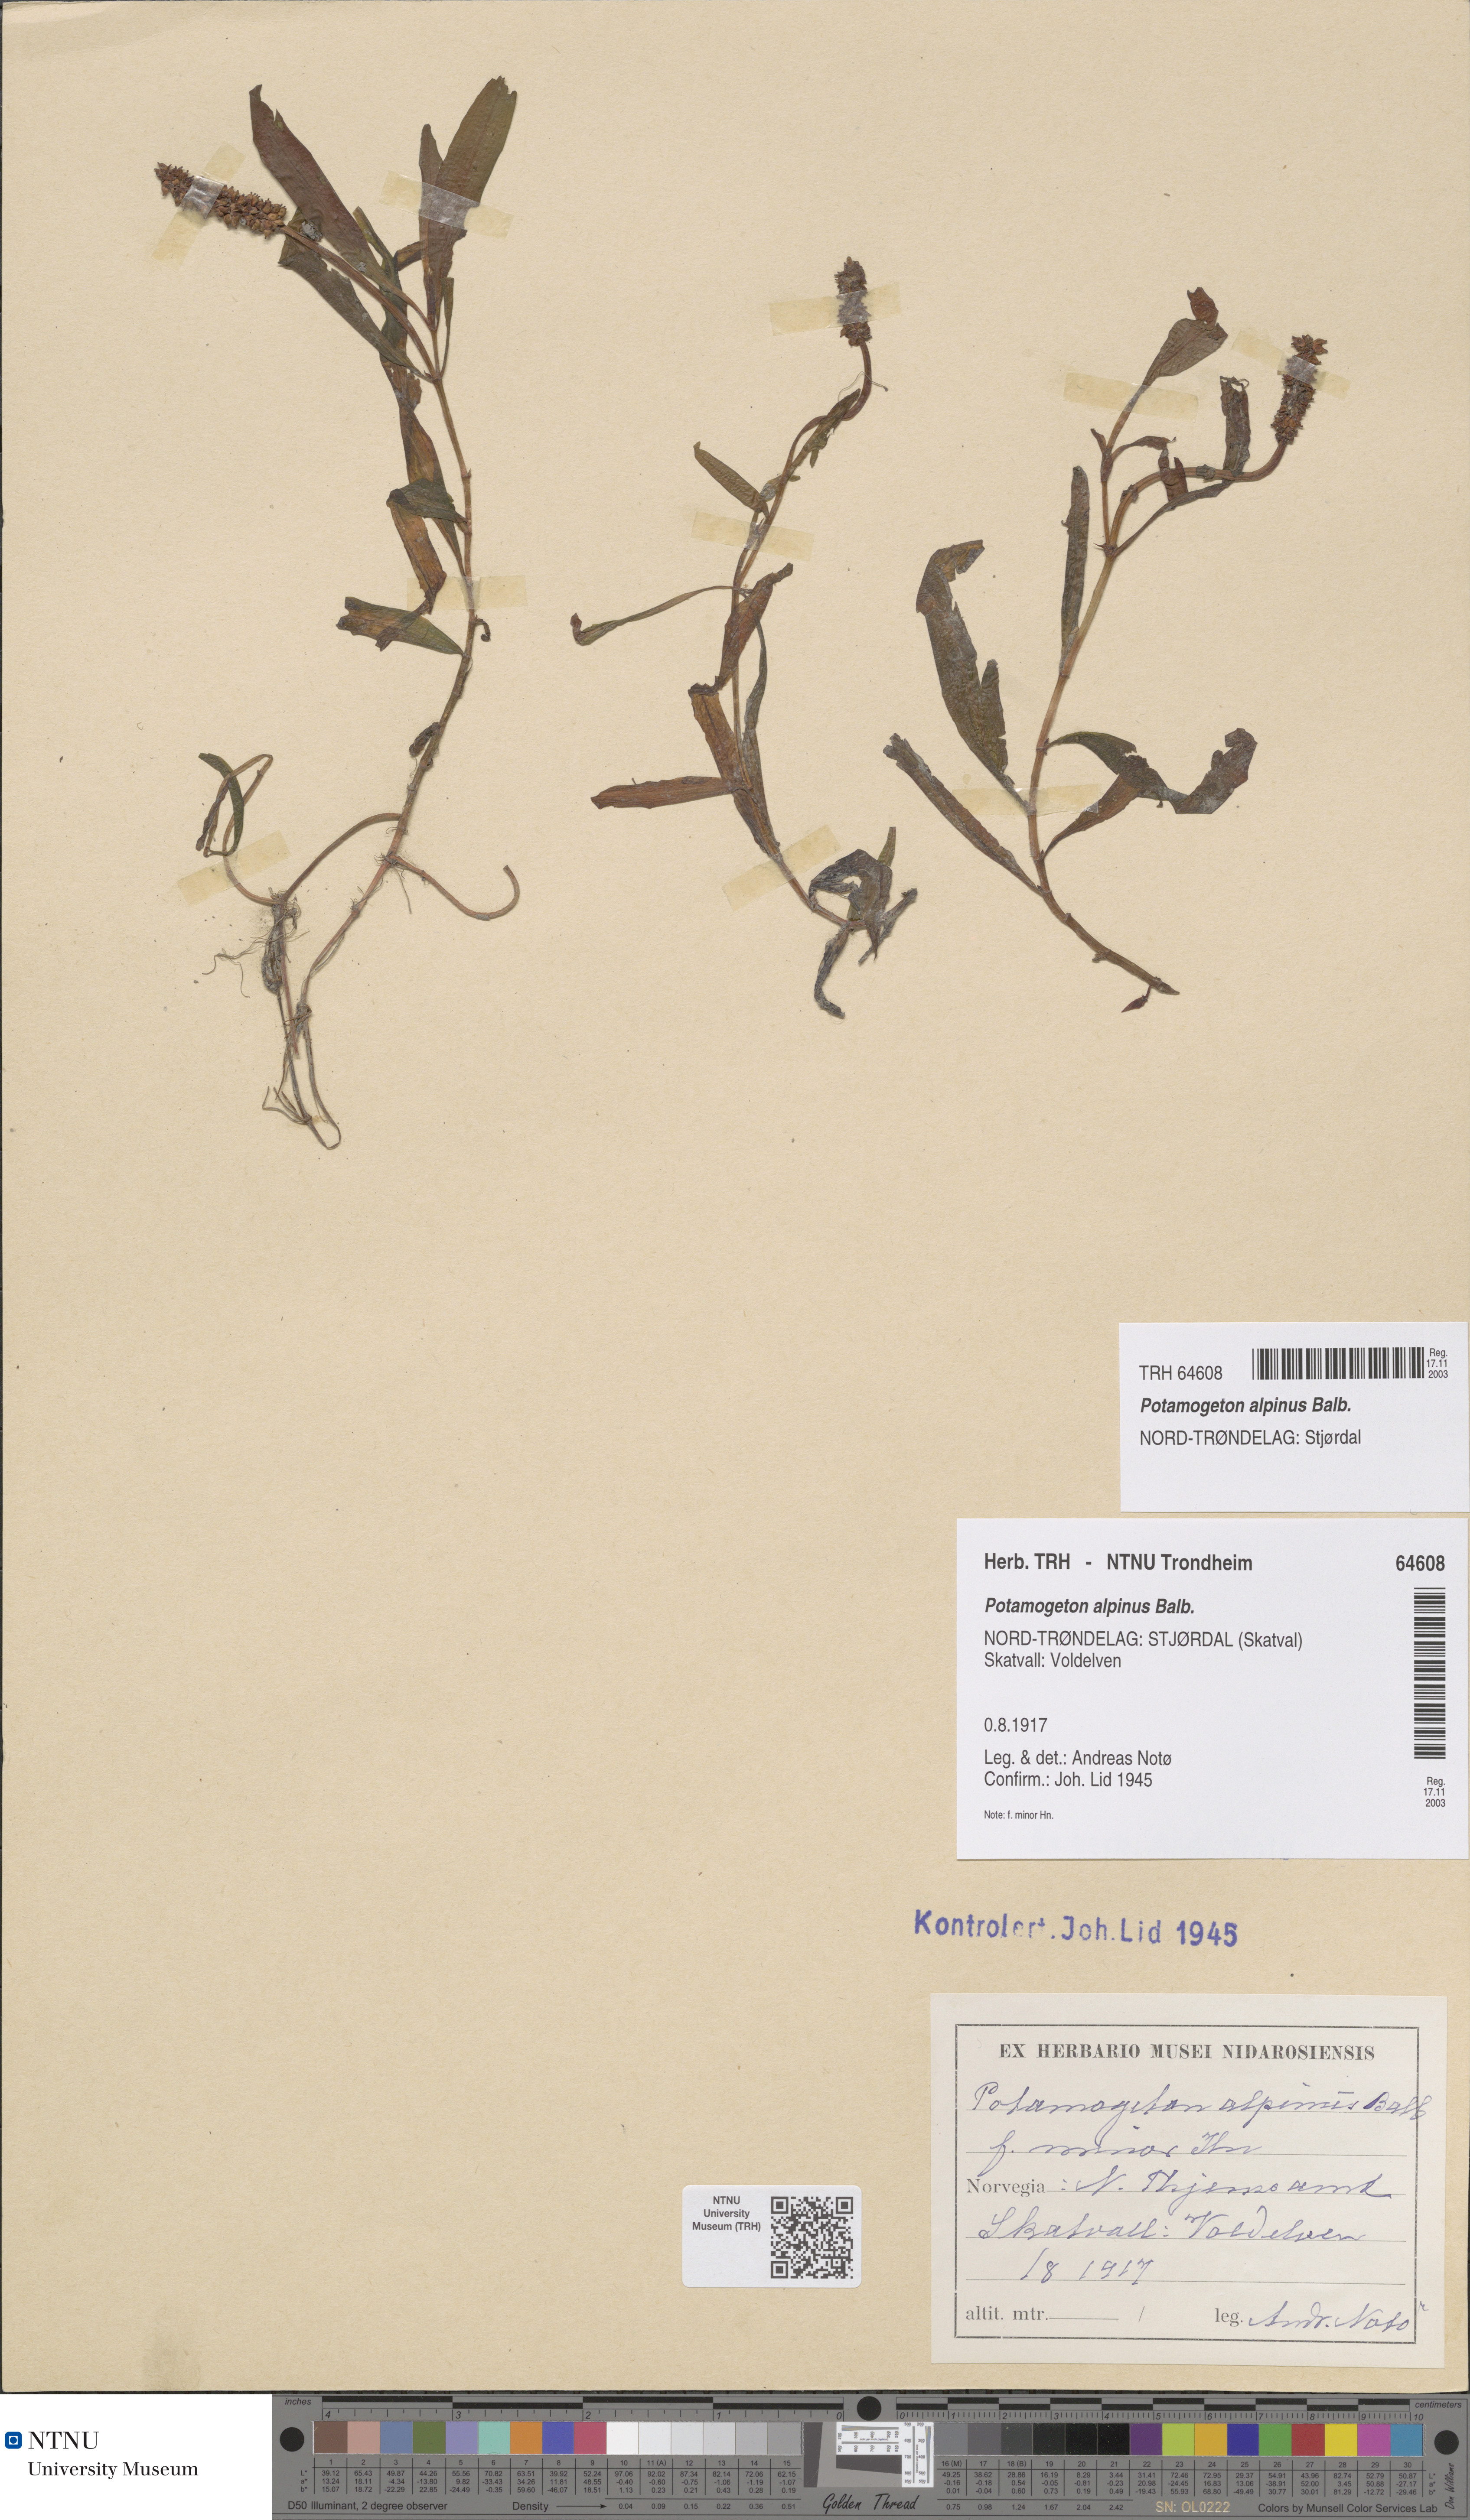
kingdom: Plantae
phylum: Tracheophyta
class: Liliopsida
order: Alismatales
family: Potamogetonaceae
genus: Potamogeton
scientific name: Potamogeton alpinus
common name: Red pondweed
